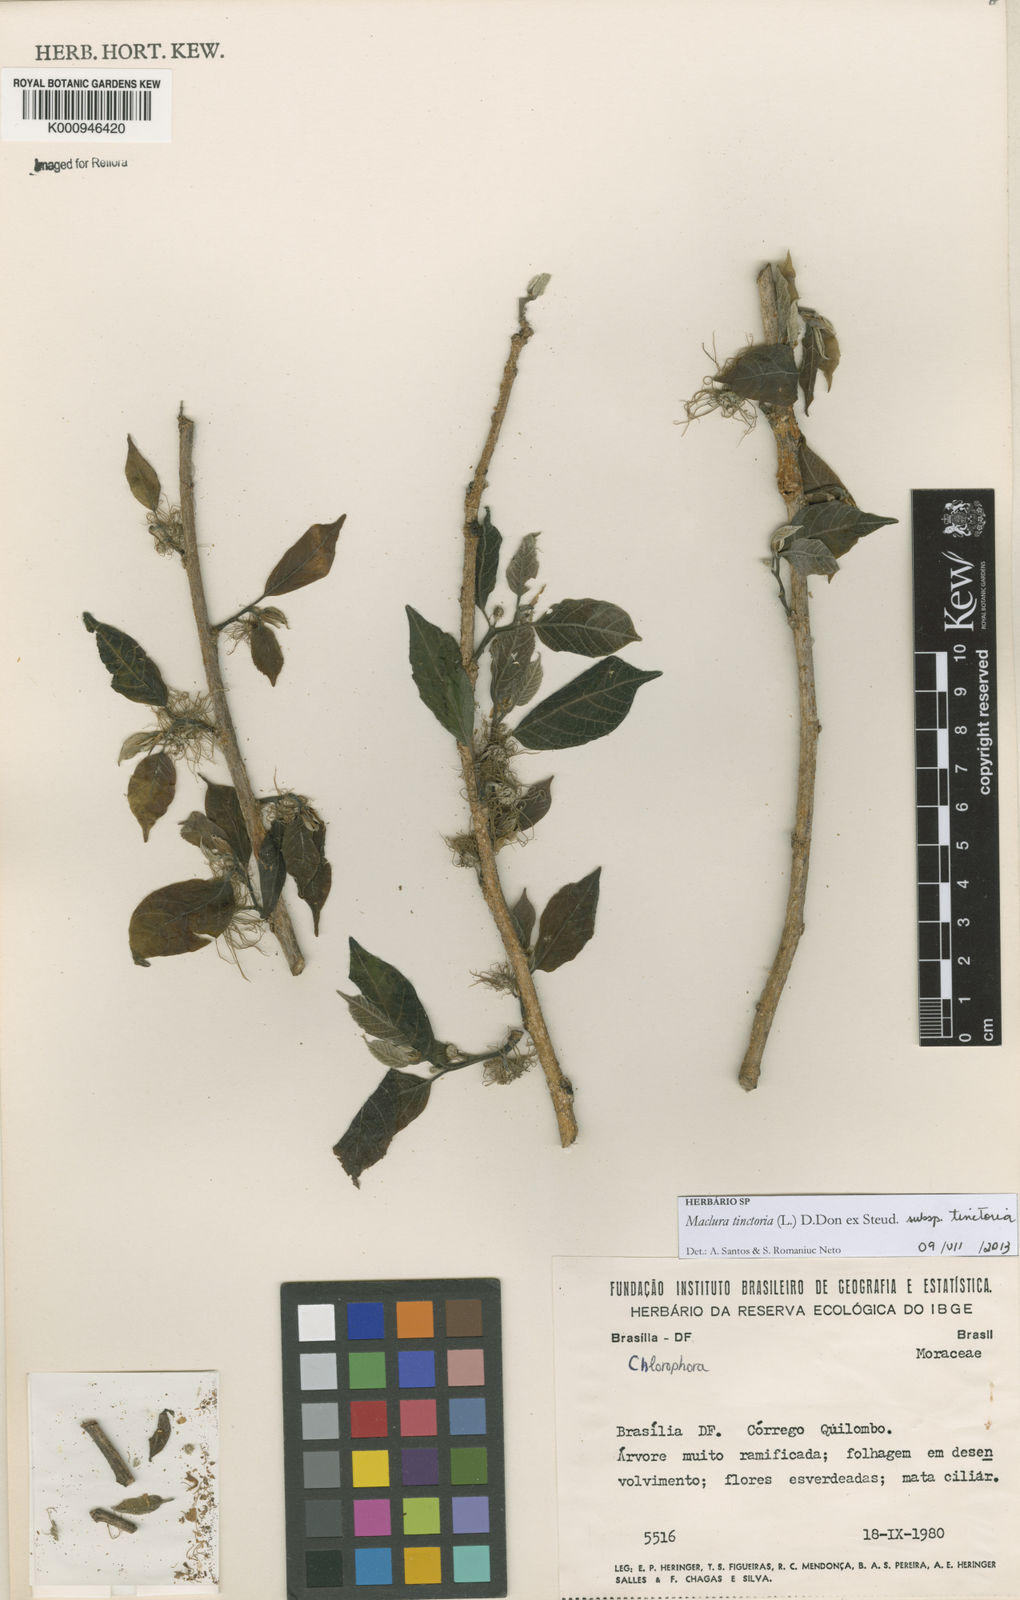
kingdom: Plantae
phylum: Tracheophyta
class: Magnoliopsida
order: Rosales
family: Moraceae
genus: Maclura
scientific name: Maclura tinctoria
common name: Old fustic
